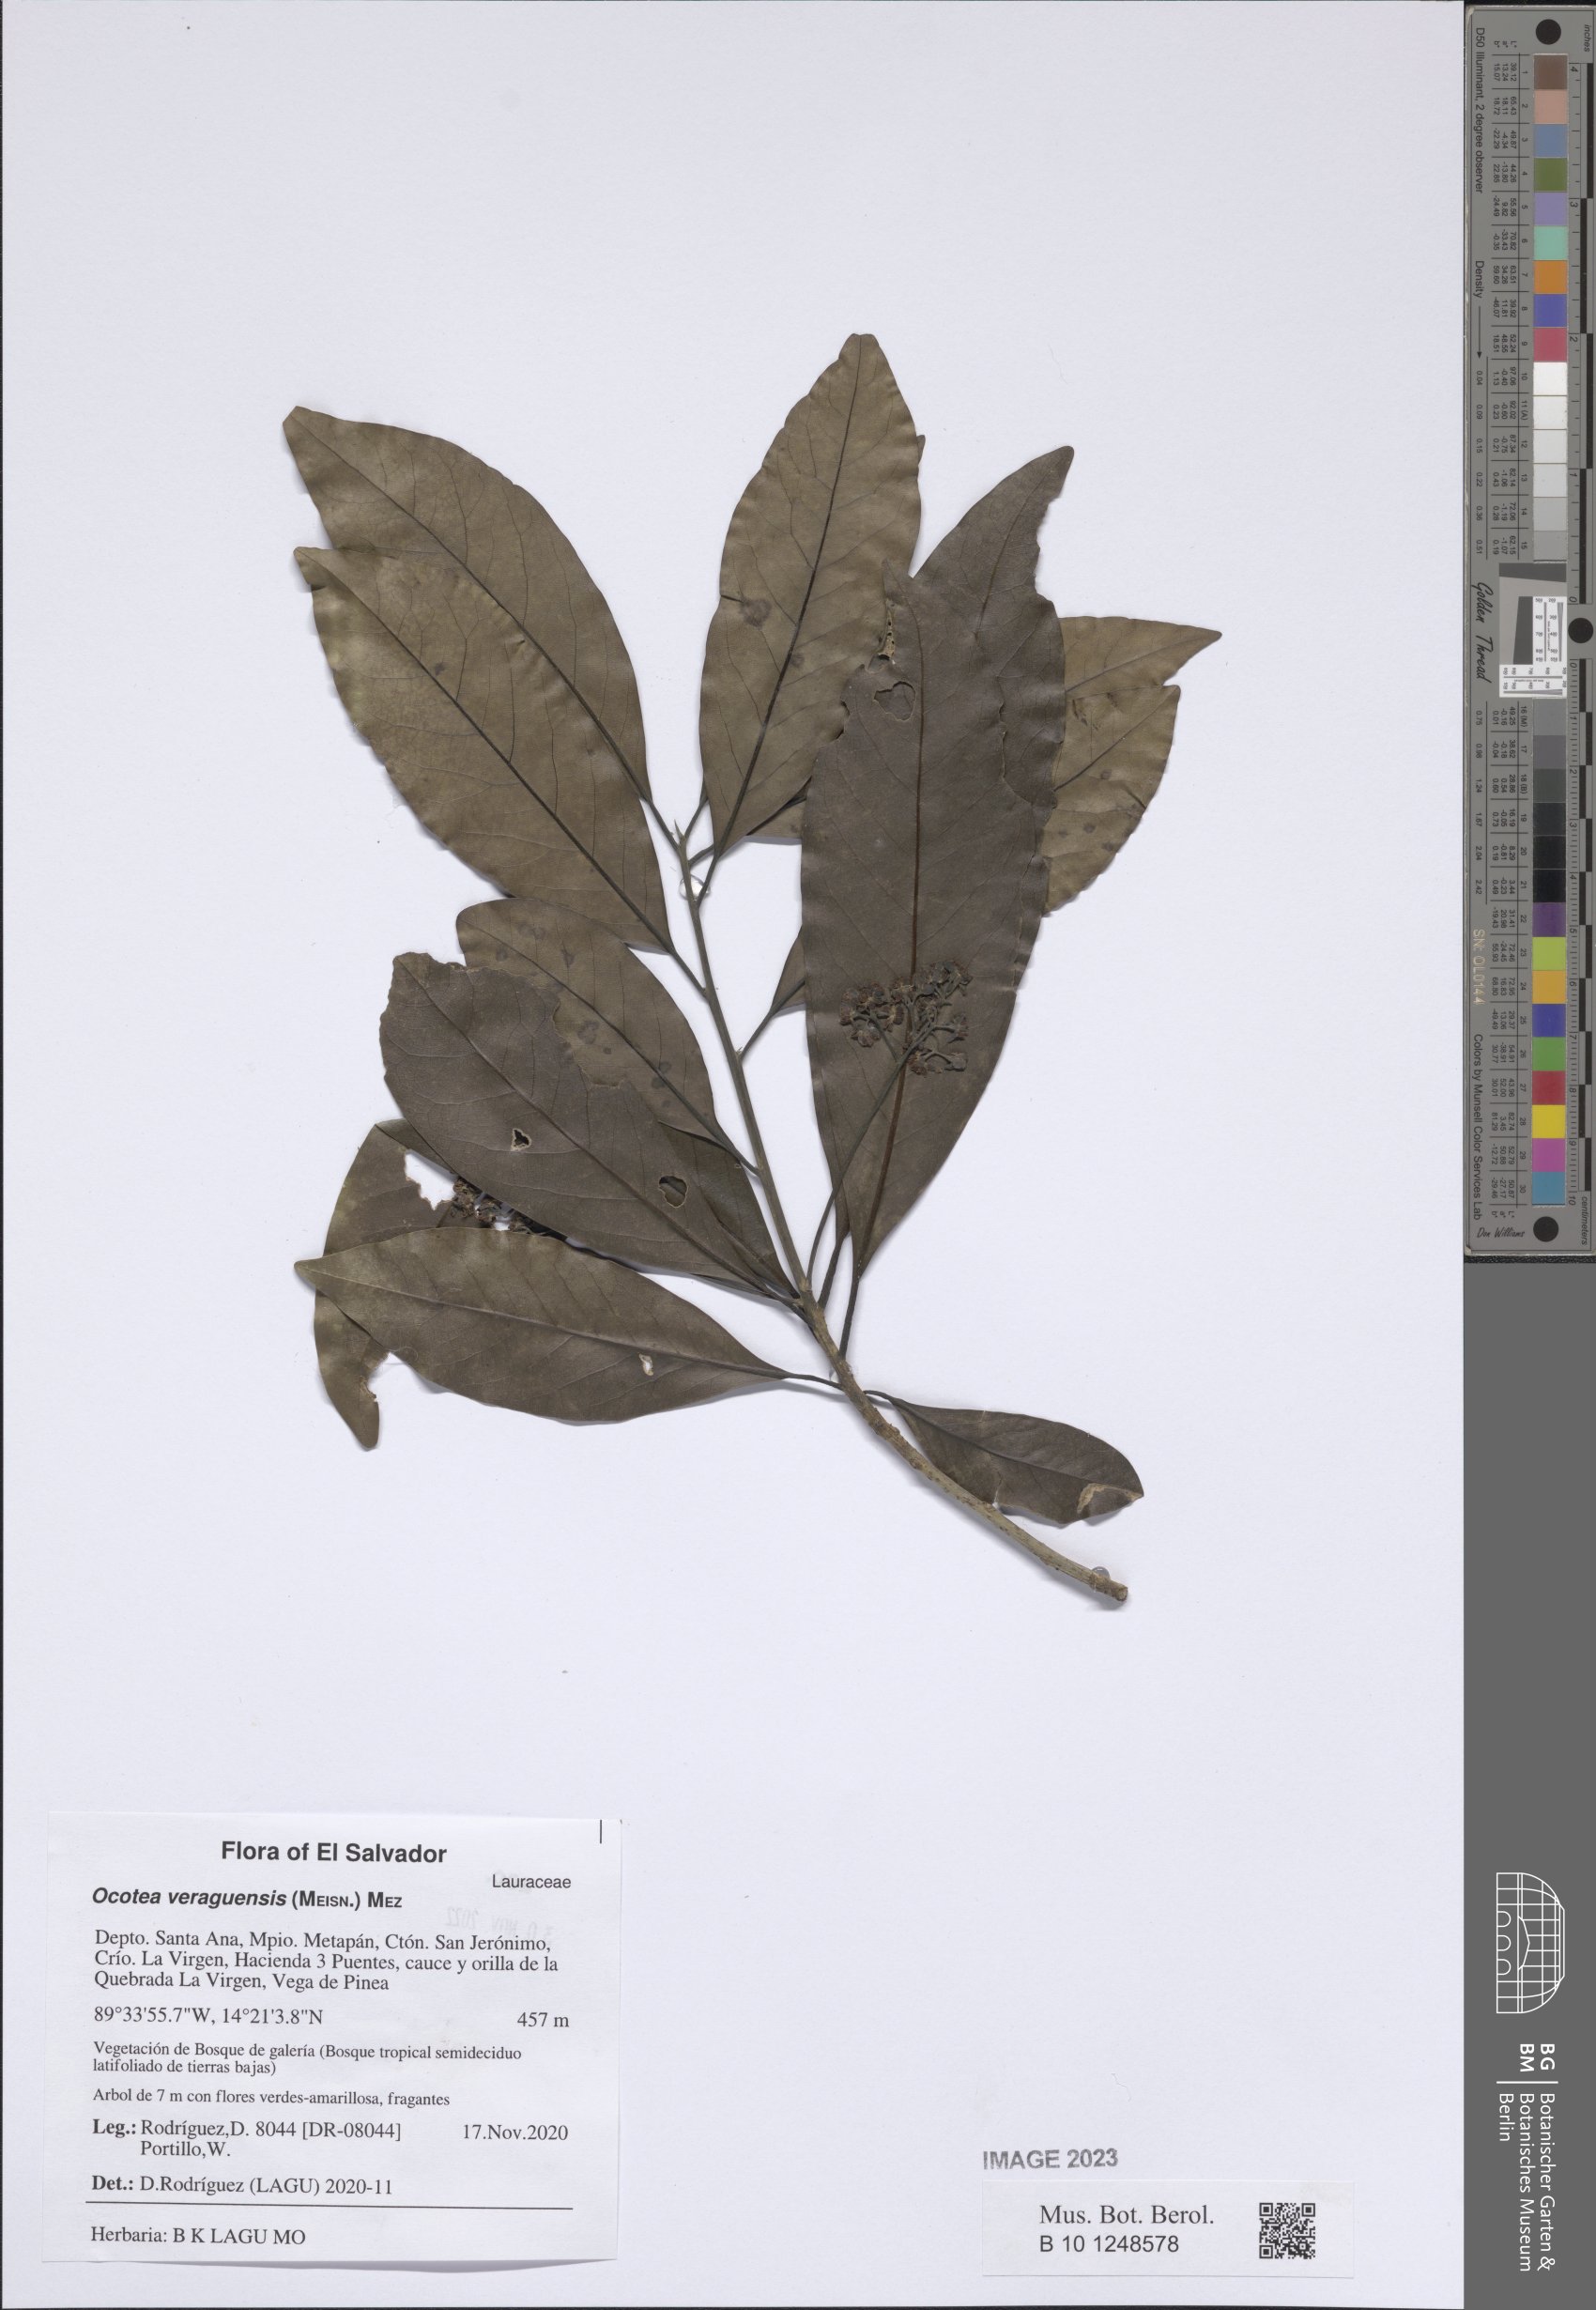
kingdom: Plantae
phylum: Tracheophyta
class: Magnoliopsida
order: Laurales
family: Lauraceae
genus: Mespilodaphne
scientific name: Mespilodaphne veraguensis
